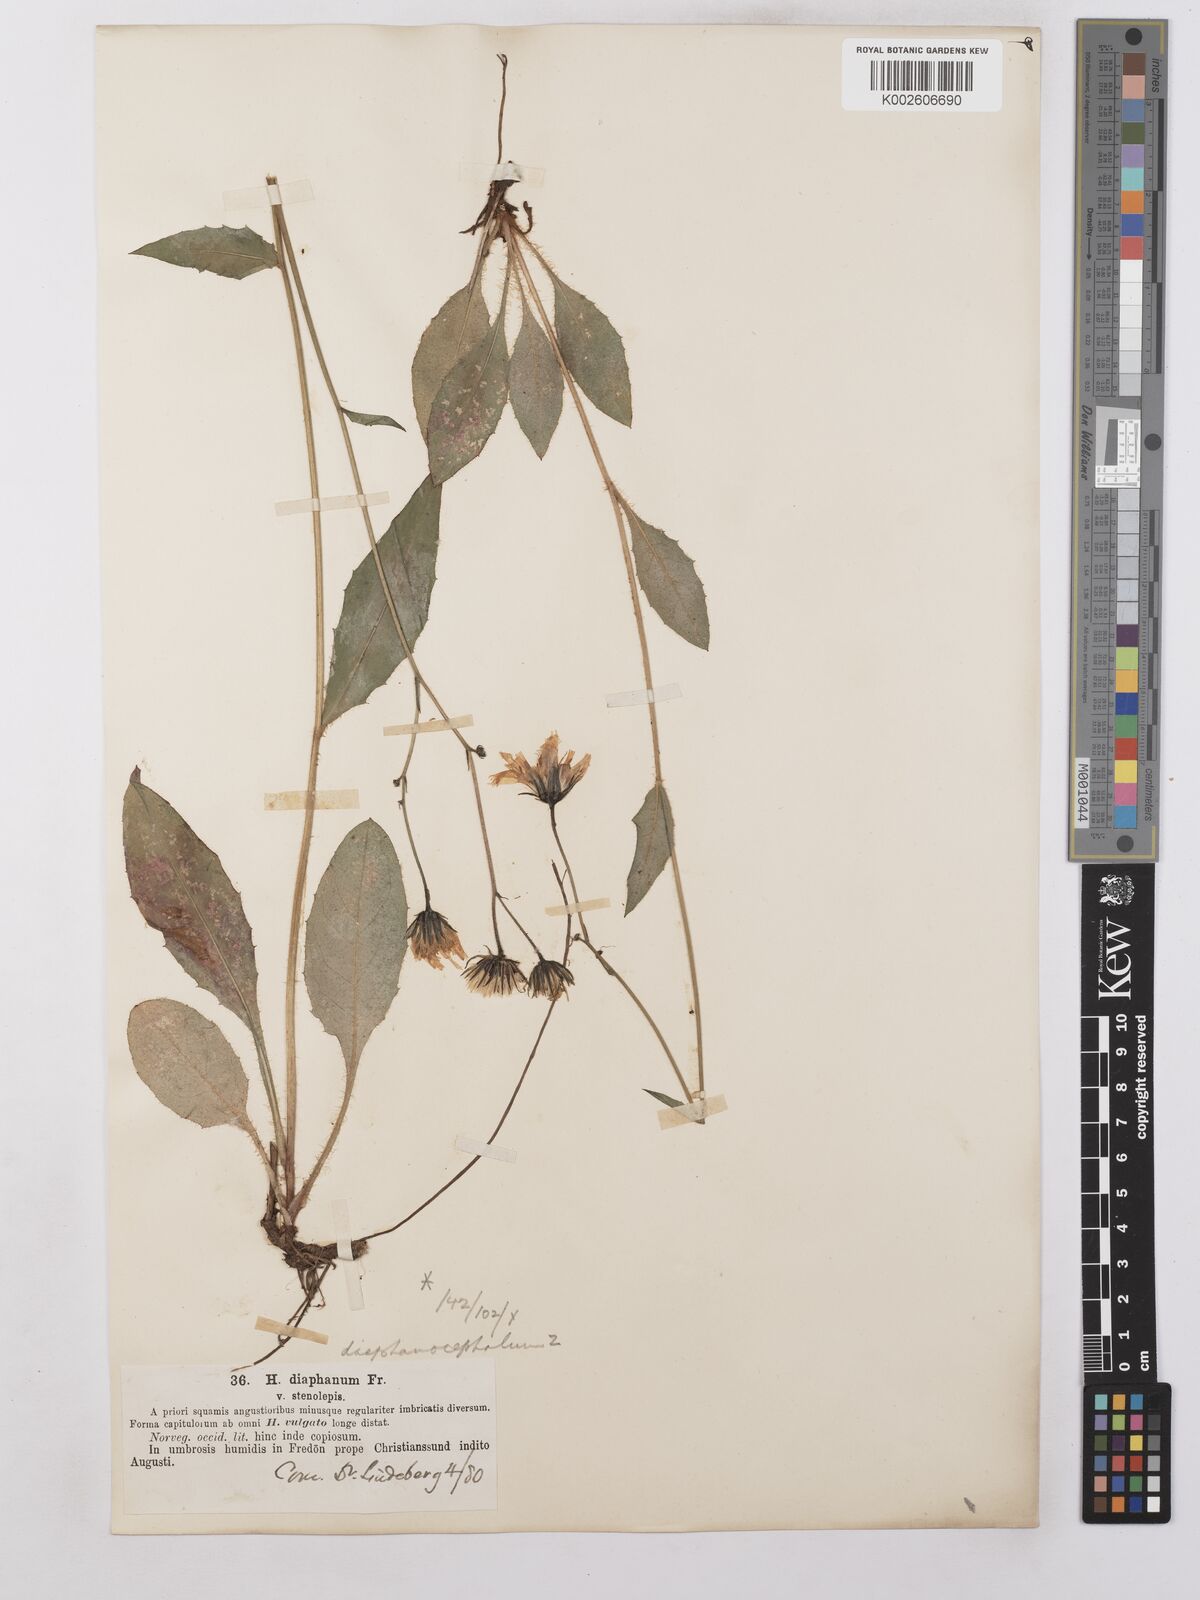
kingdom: Plantae
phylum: Tracheophyta
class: Magnoliopsida
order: Asterales
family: Asteraceae
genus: Hieracium
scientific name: Hieracium lachenalii
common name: Common hawkweed
